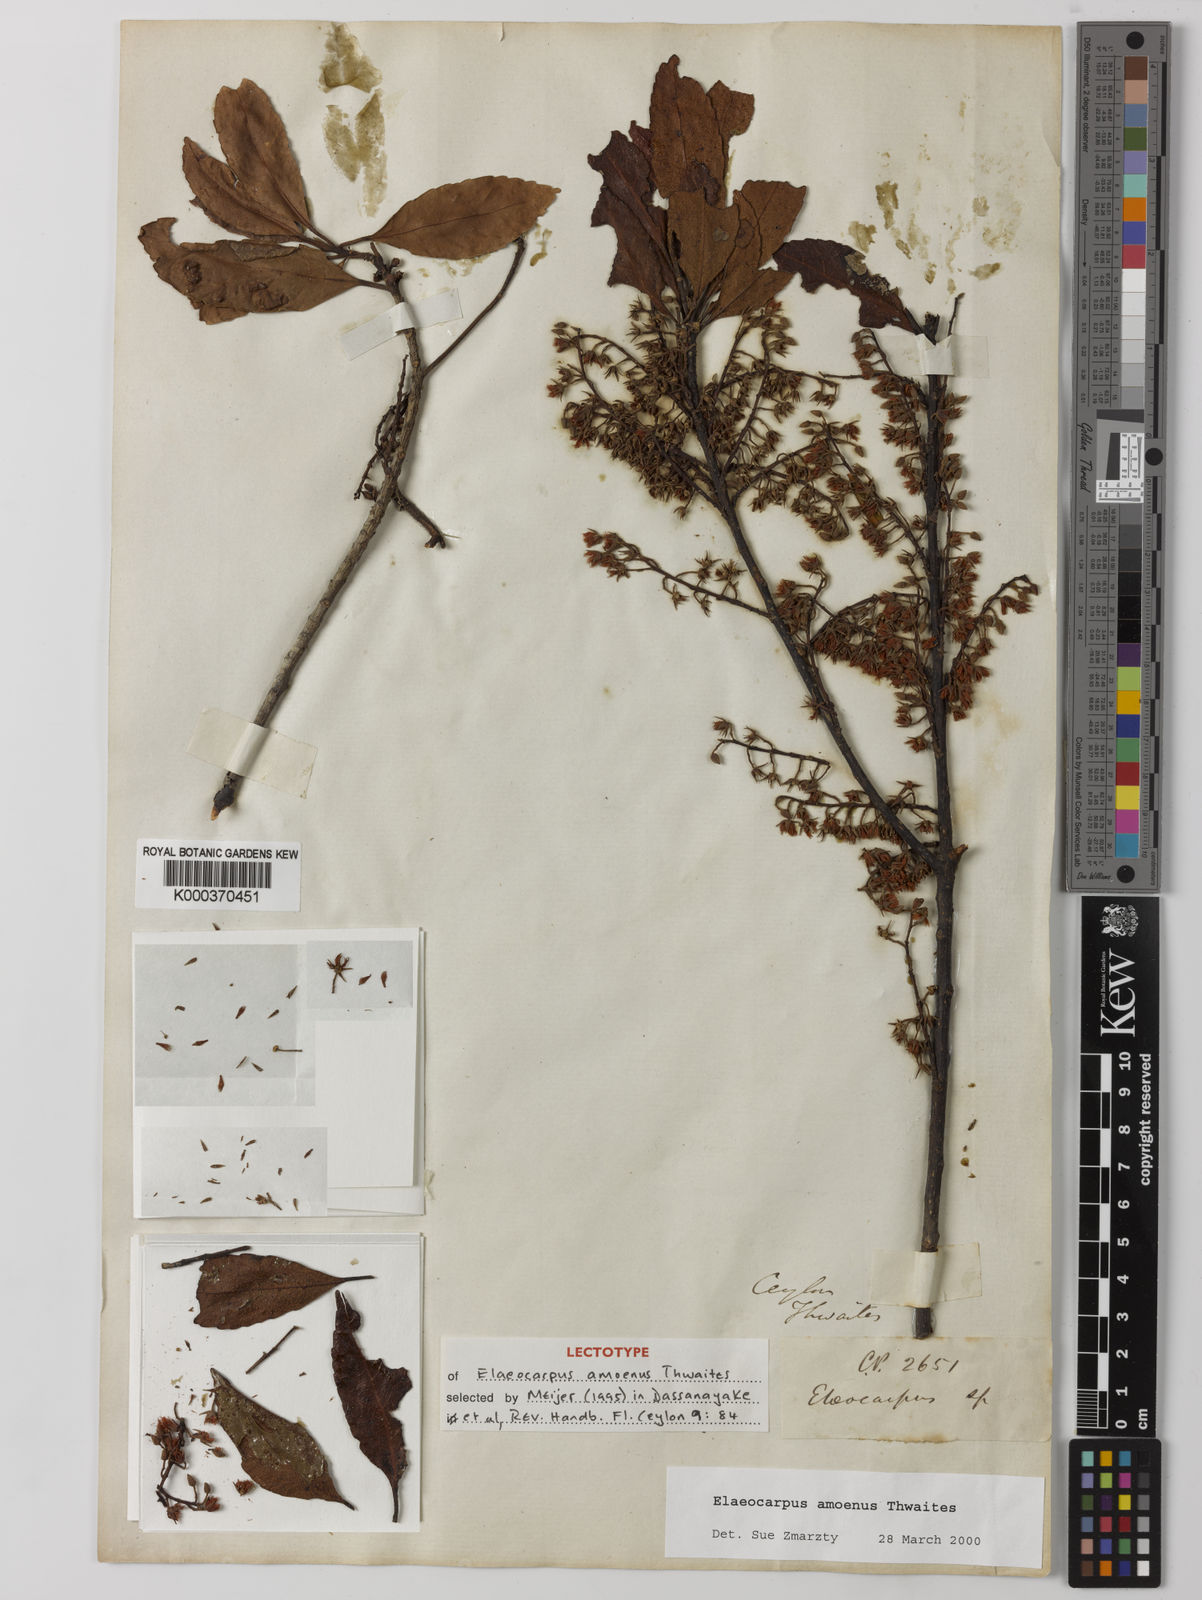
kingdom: Plantae
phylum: Tracheophyta
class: Magnoliopsida
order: Oxalidales
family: Elaeocarpaceae
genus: Elaeocarpus
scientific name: Elaeocarpus amoenus
